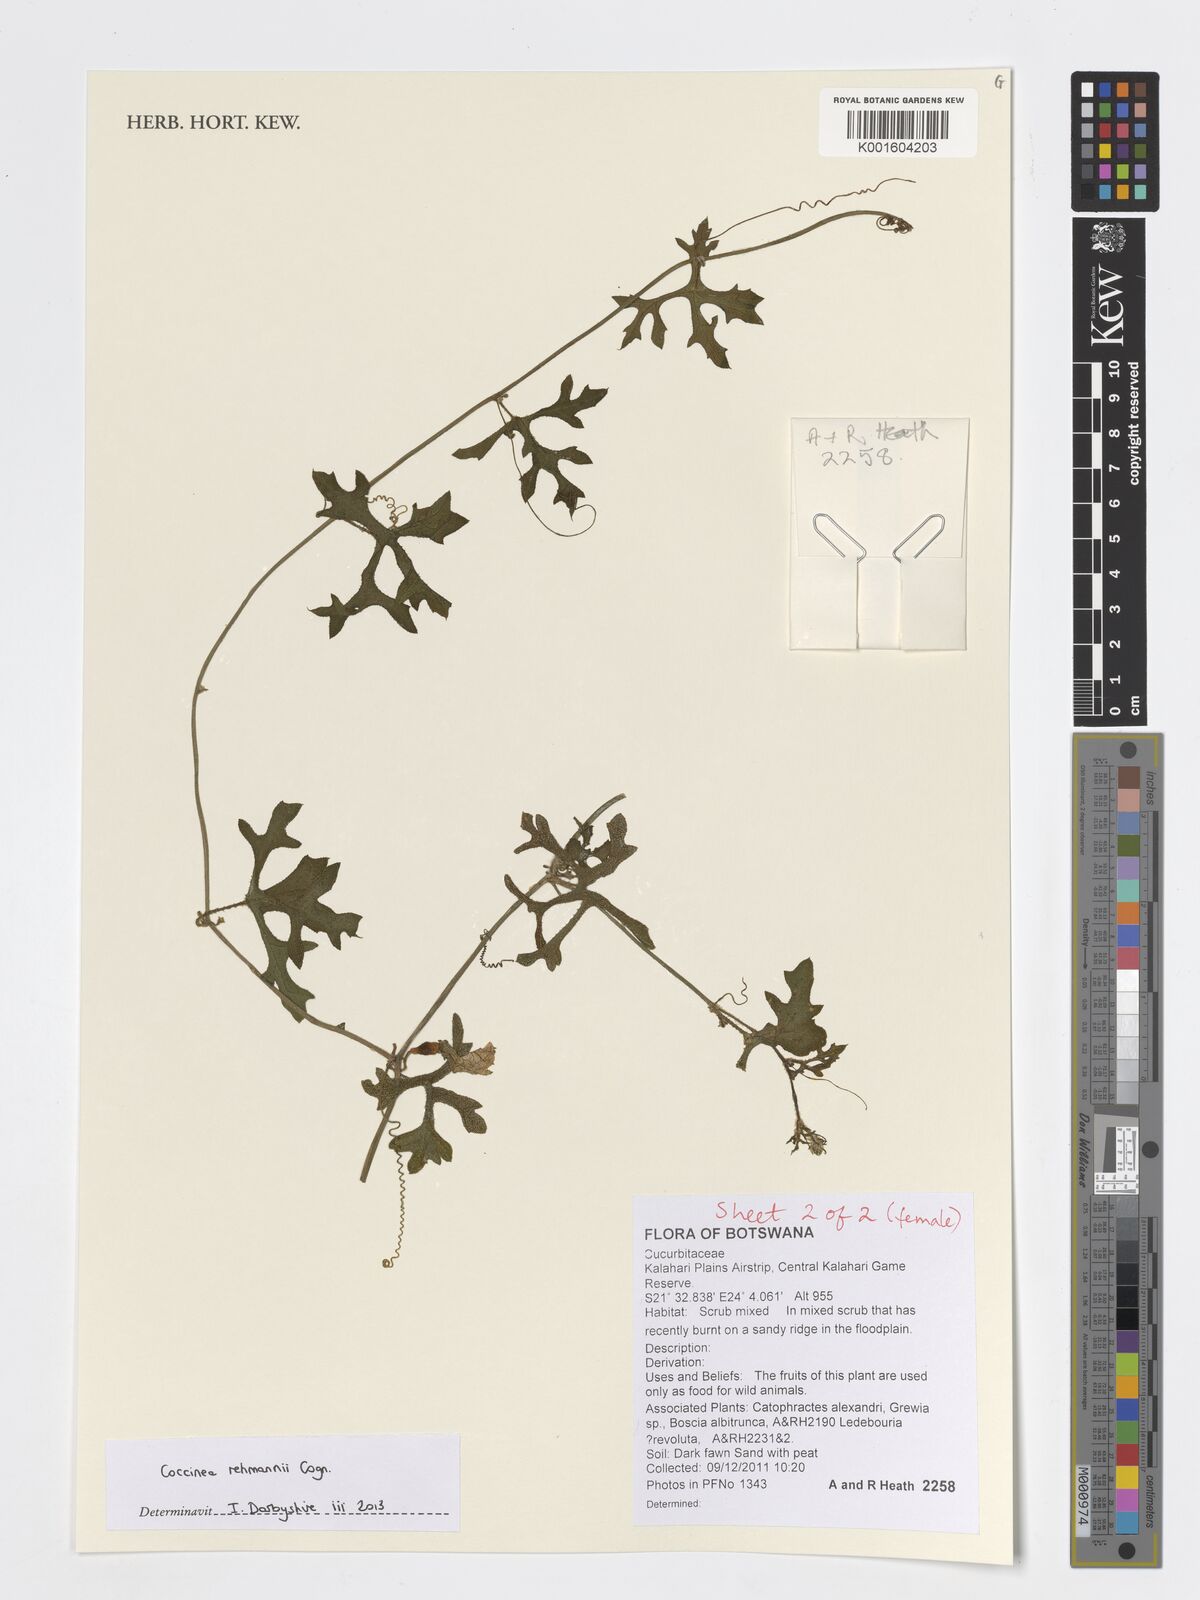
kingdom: Plantae
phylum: Tracheophyta
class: Magnoliopsida
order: Cucurbitales
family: Cucurbitaceae
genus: Coccinia
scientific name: Coccinia rehmannii
